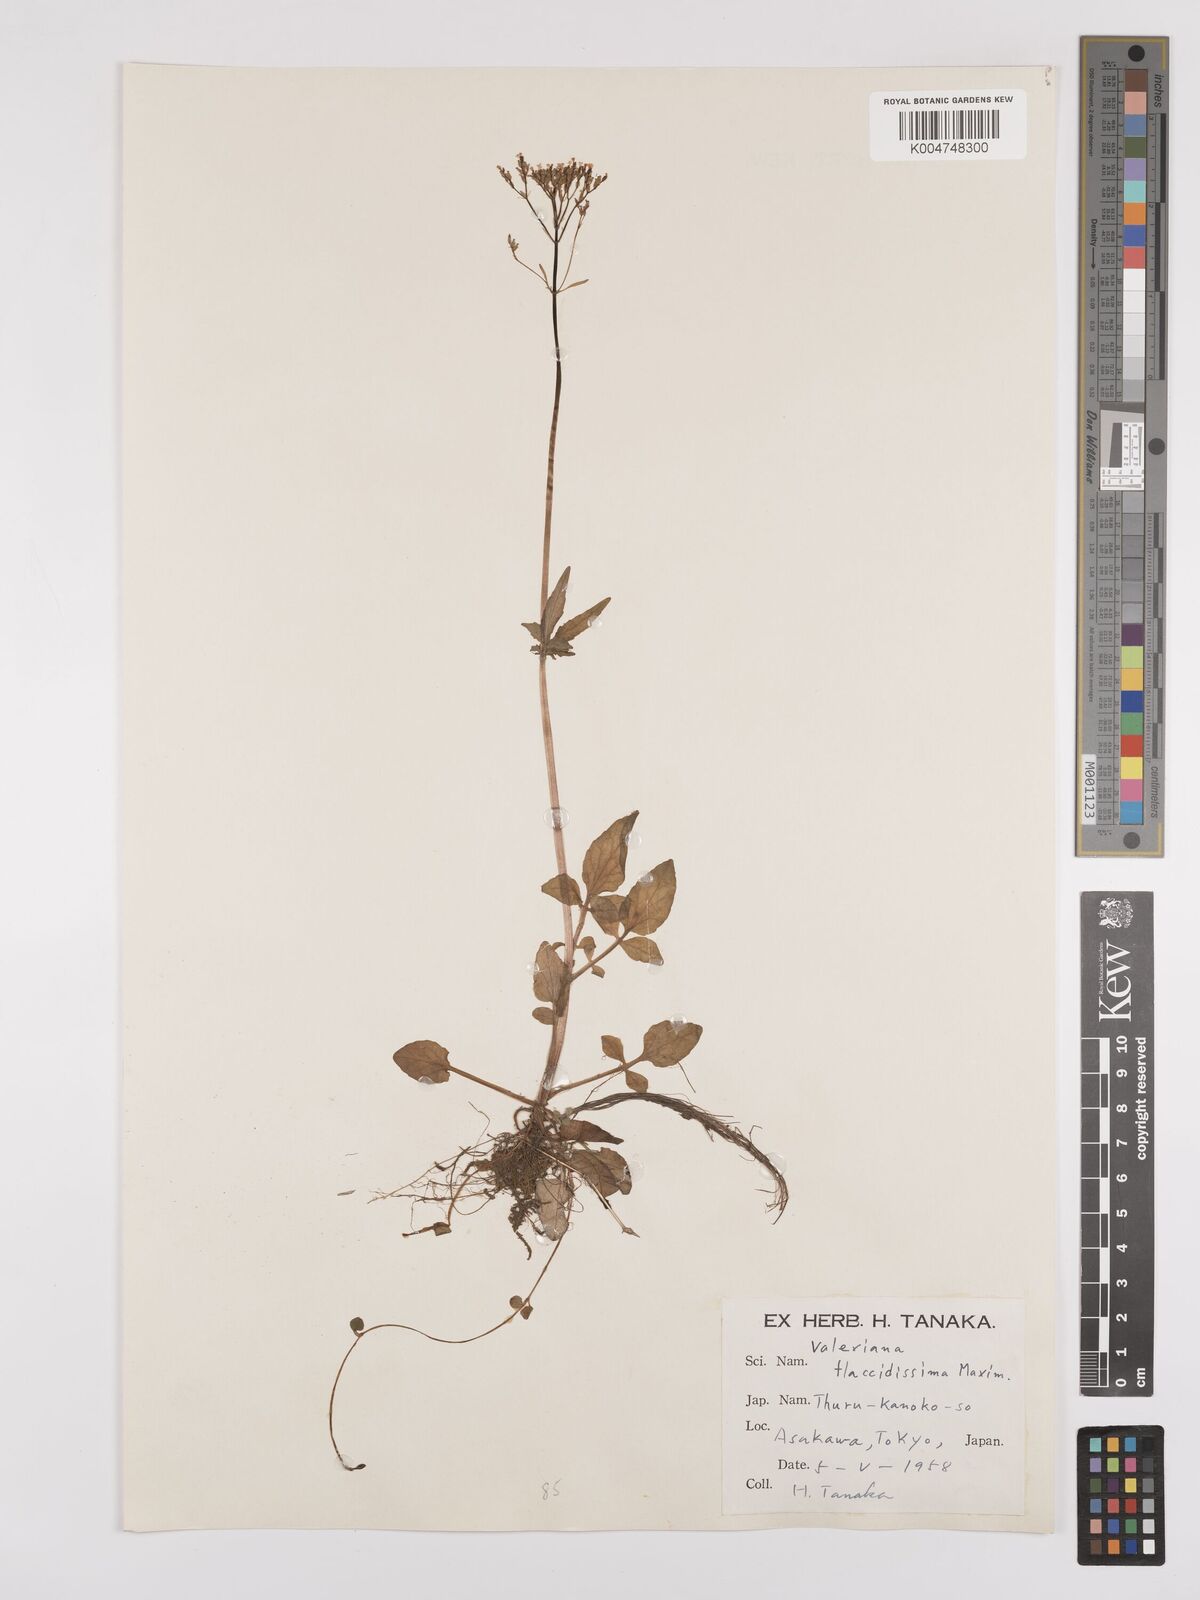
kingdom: Plantae
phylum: Tracheophyta
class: Magnoliopsida
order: Dipsacales
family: Caprifoliaceae
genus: Valeriana
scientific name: Valeriana flaccidissima
